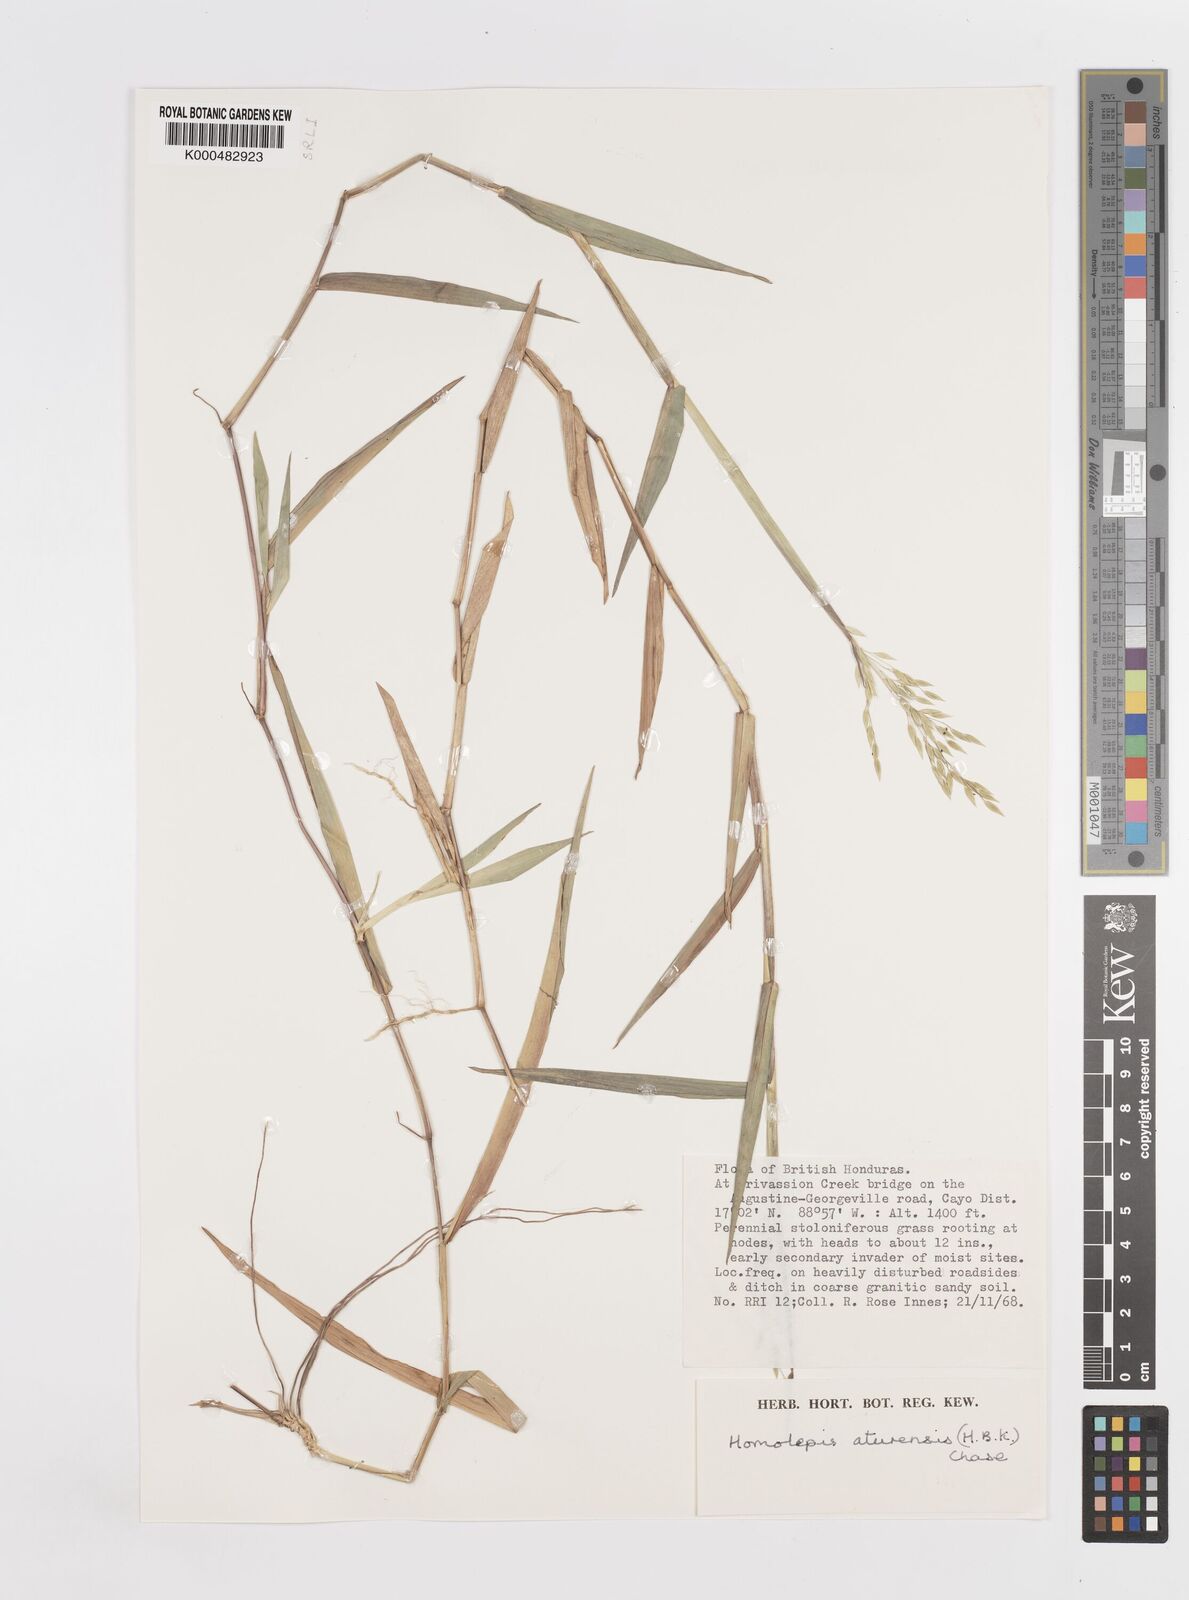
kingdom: Plantae
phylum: Tracheophyta
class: Liliopsida
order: Poales
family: Poaceae
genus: Homolepis
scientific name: Homolepis aturensis
